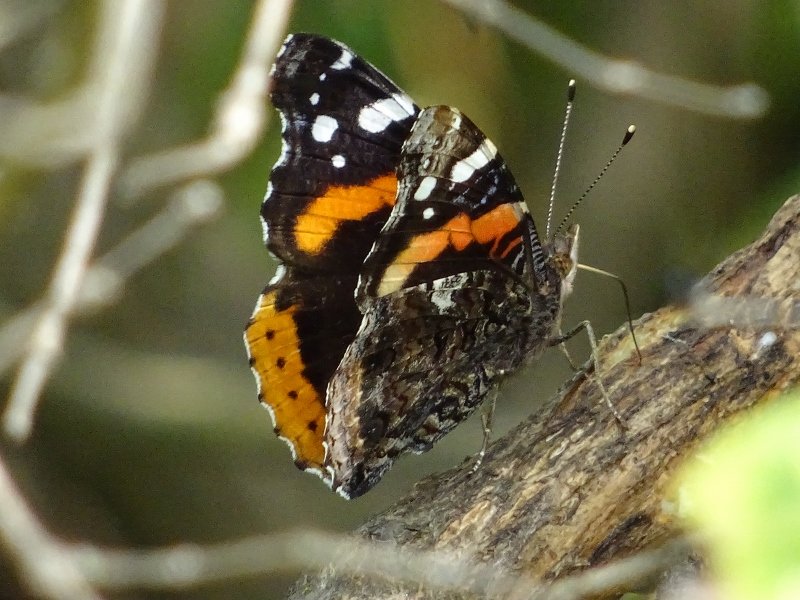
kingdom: Animalia
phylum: Arthropoda
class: Insecta
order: Lepidoptera
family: Nymphalidae
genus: Vanessa
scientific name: Vanessa atalanta
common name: Red Admiral
